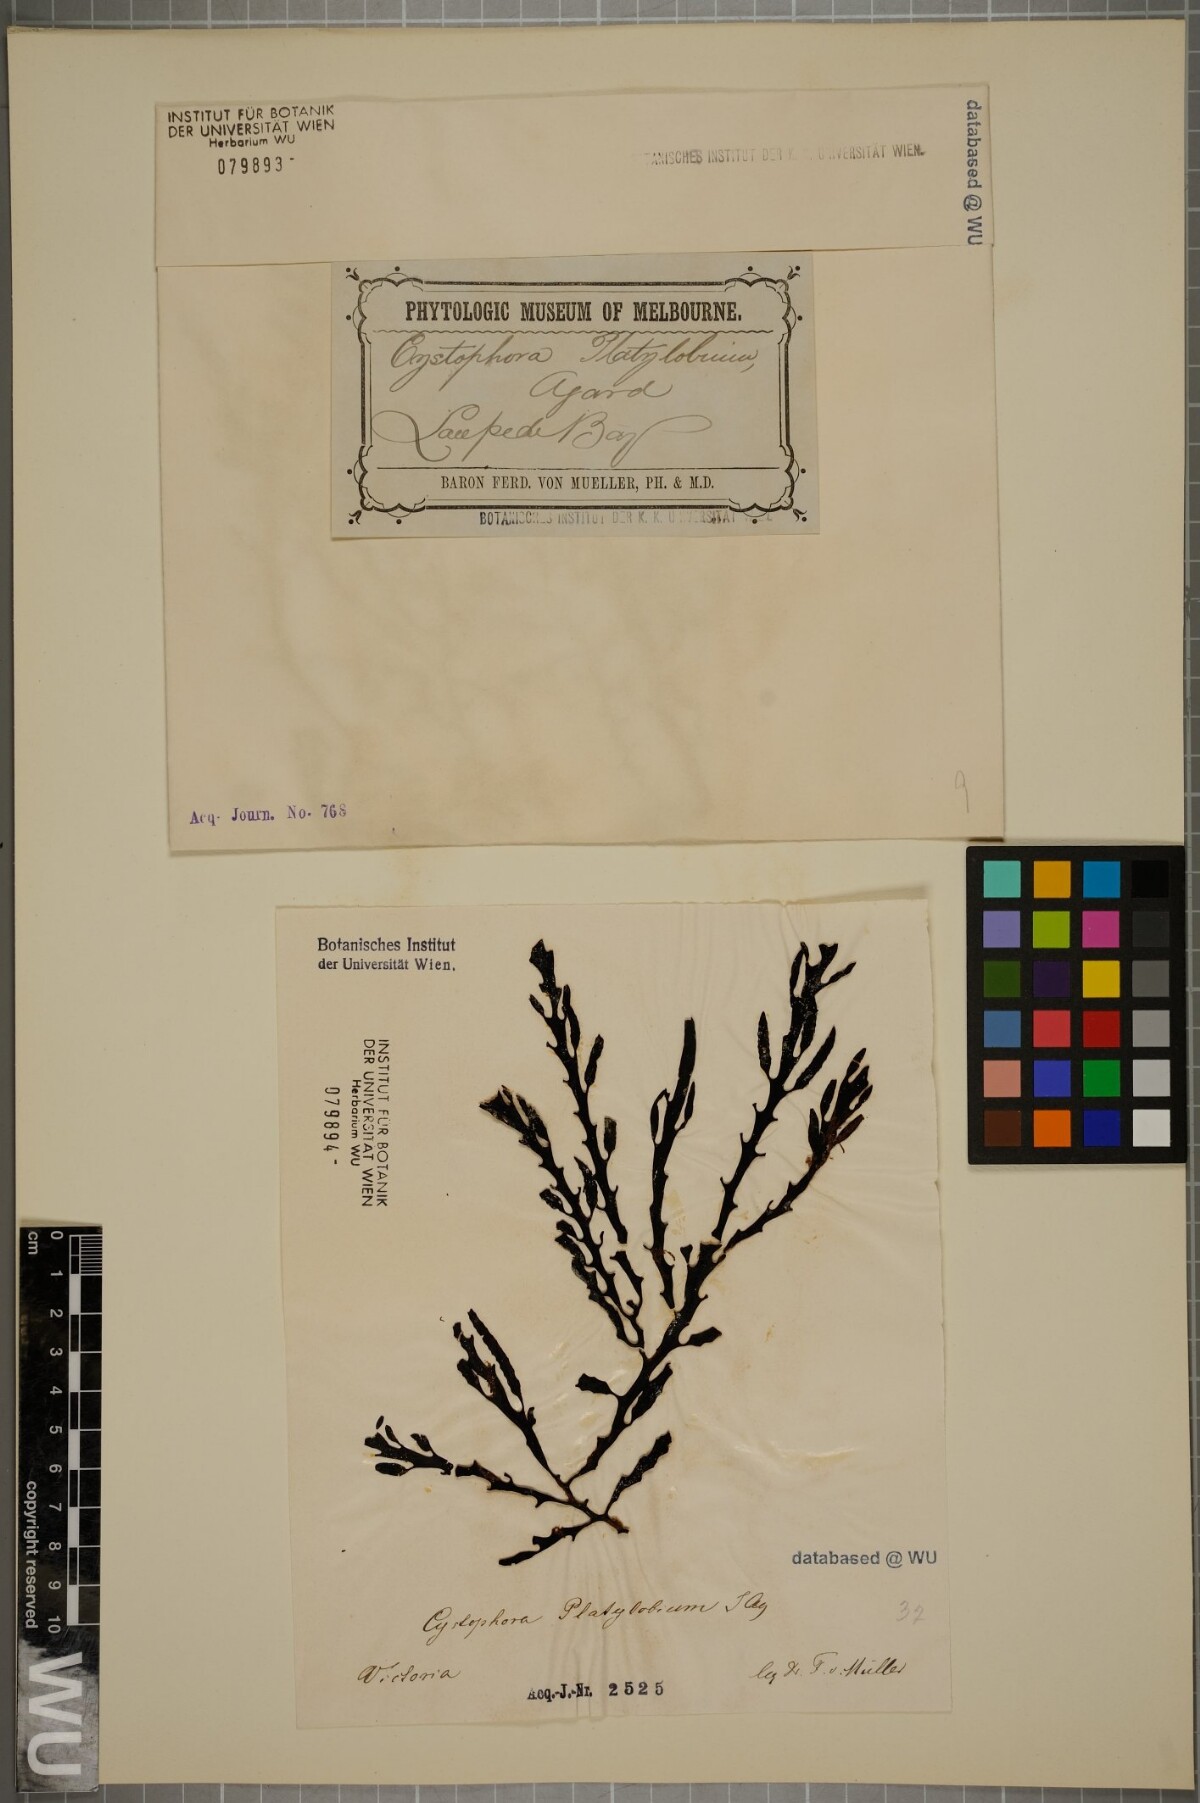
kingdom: Chromista
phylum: Ochrophyta
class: Phaeophyceae
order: Fucales
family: Sargassaceae
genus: Cystophora
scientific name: Cystophora platylobium
